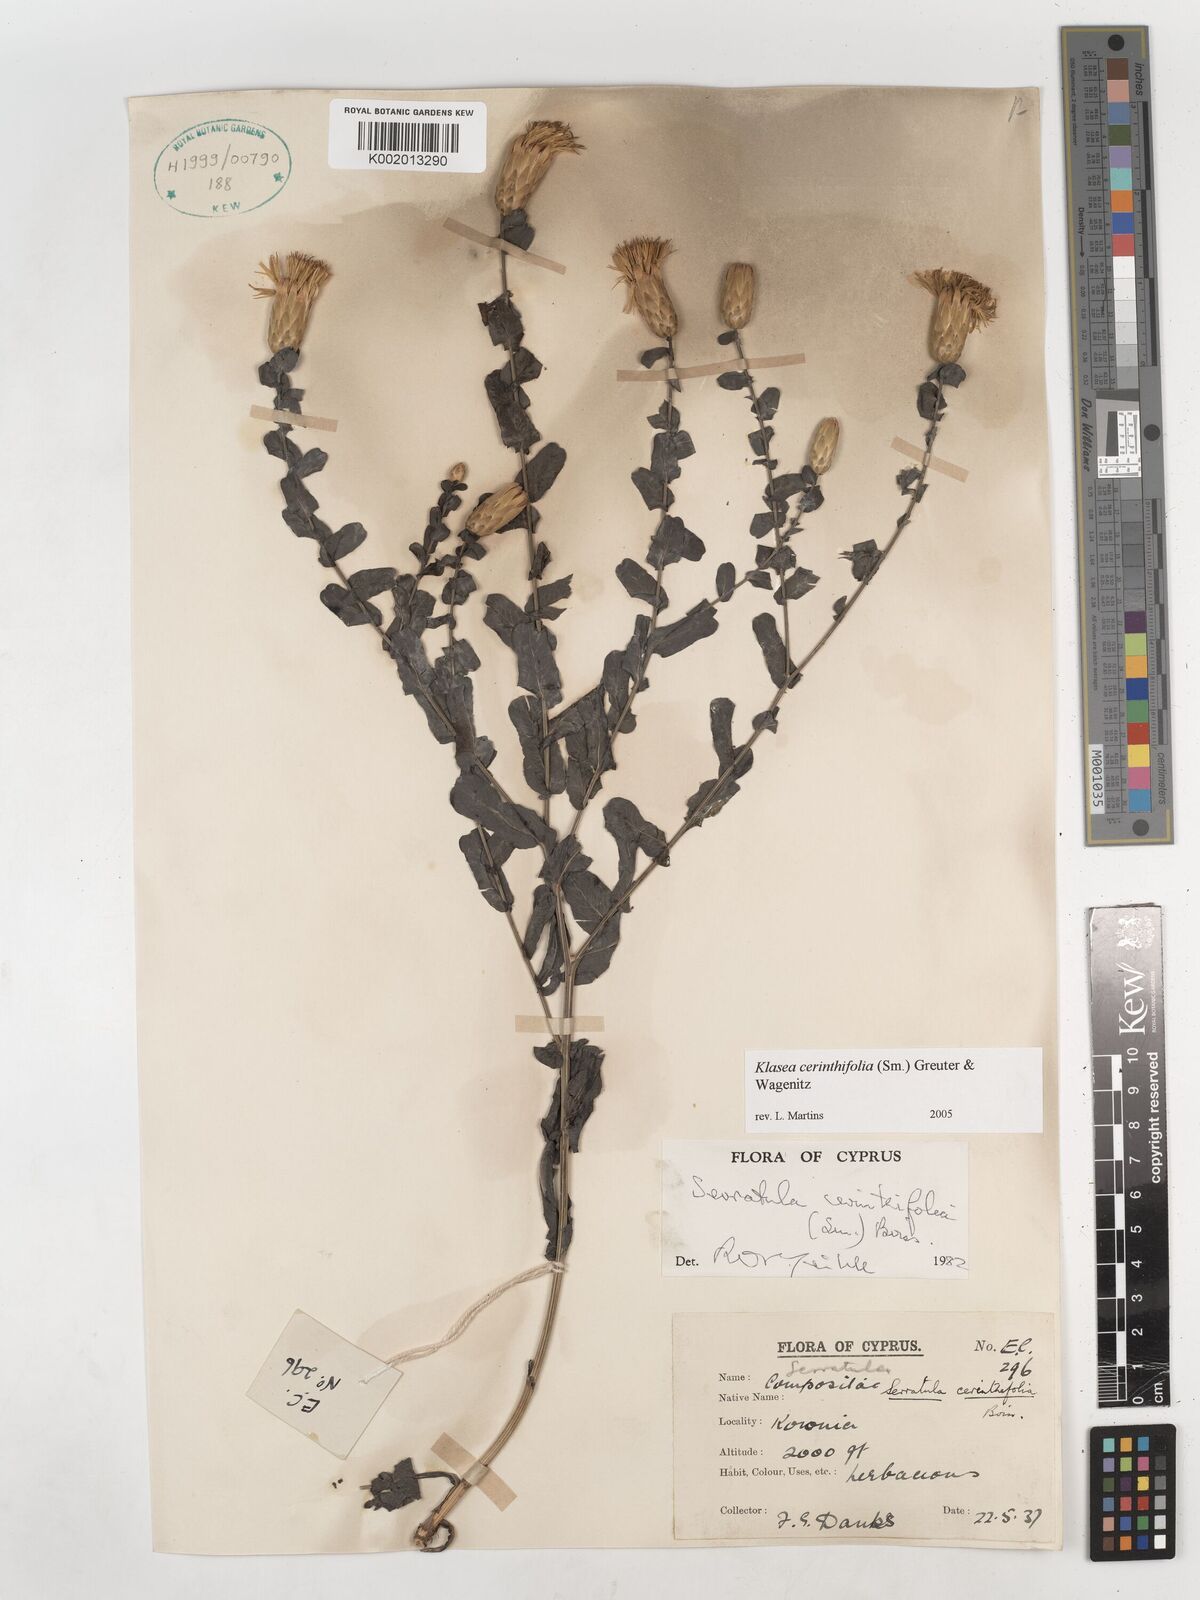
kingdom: Plantae
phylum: Tracheophyta
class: Magnoliopsida
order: Asterales
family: Asteraceae
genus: Klasea
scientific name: Klasea cerinthifolia
